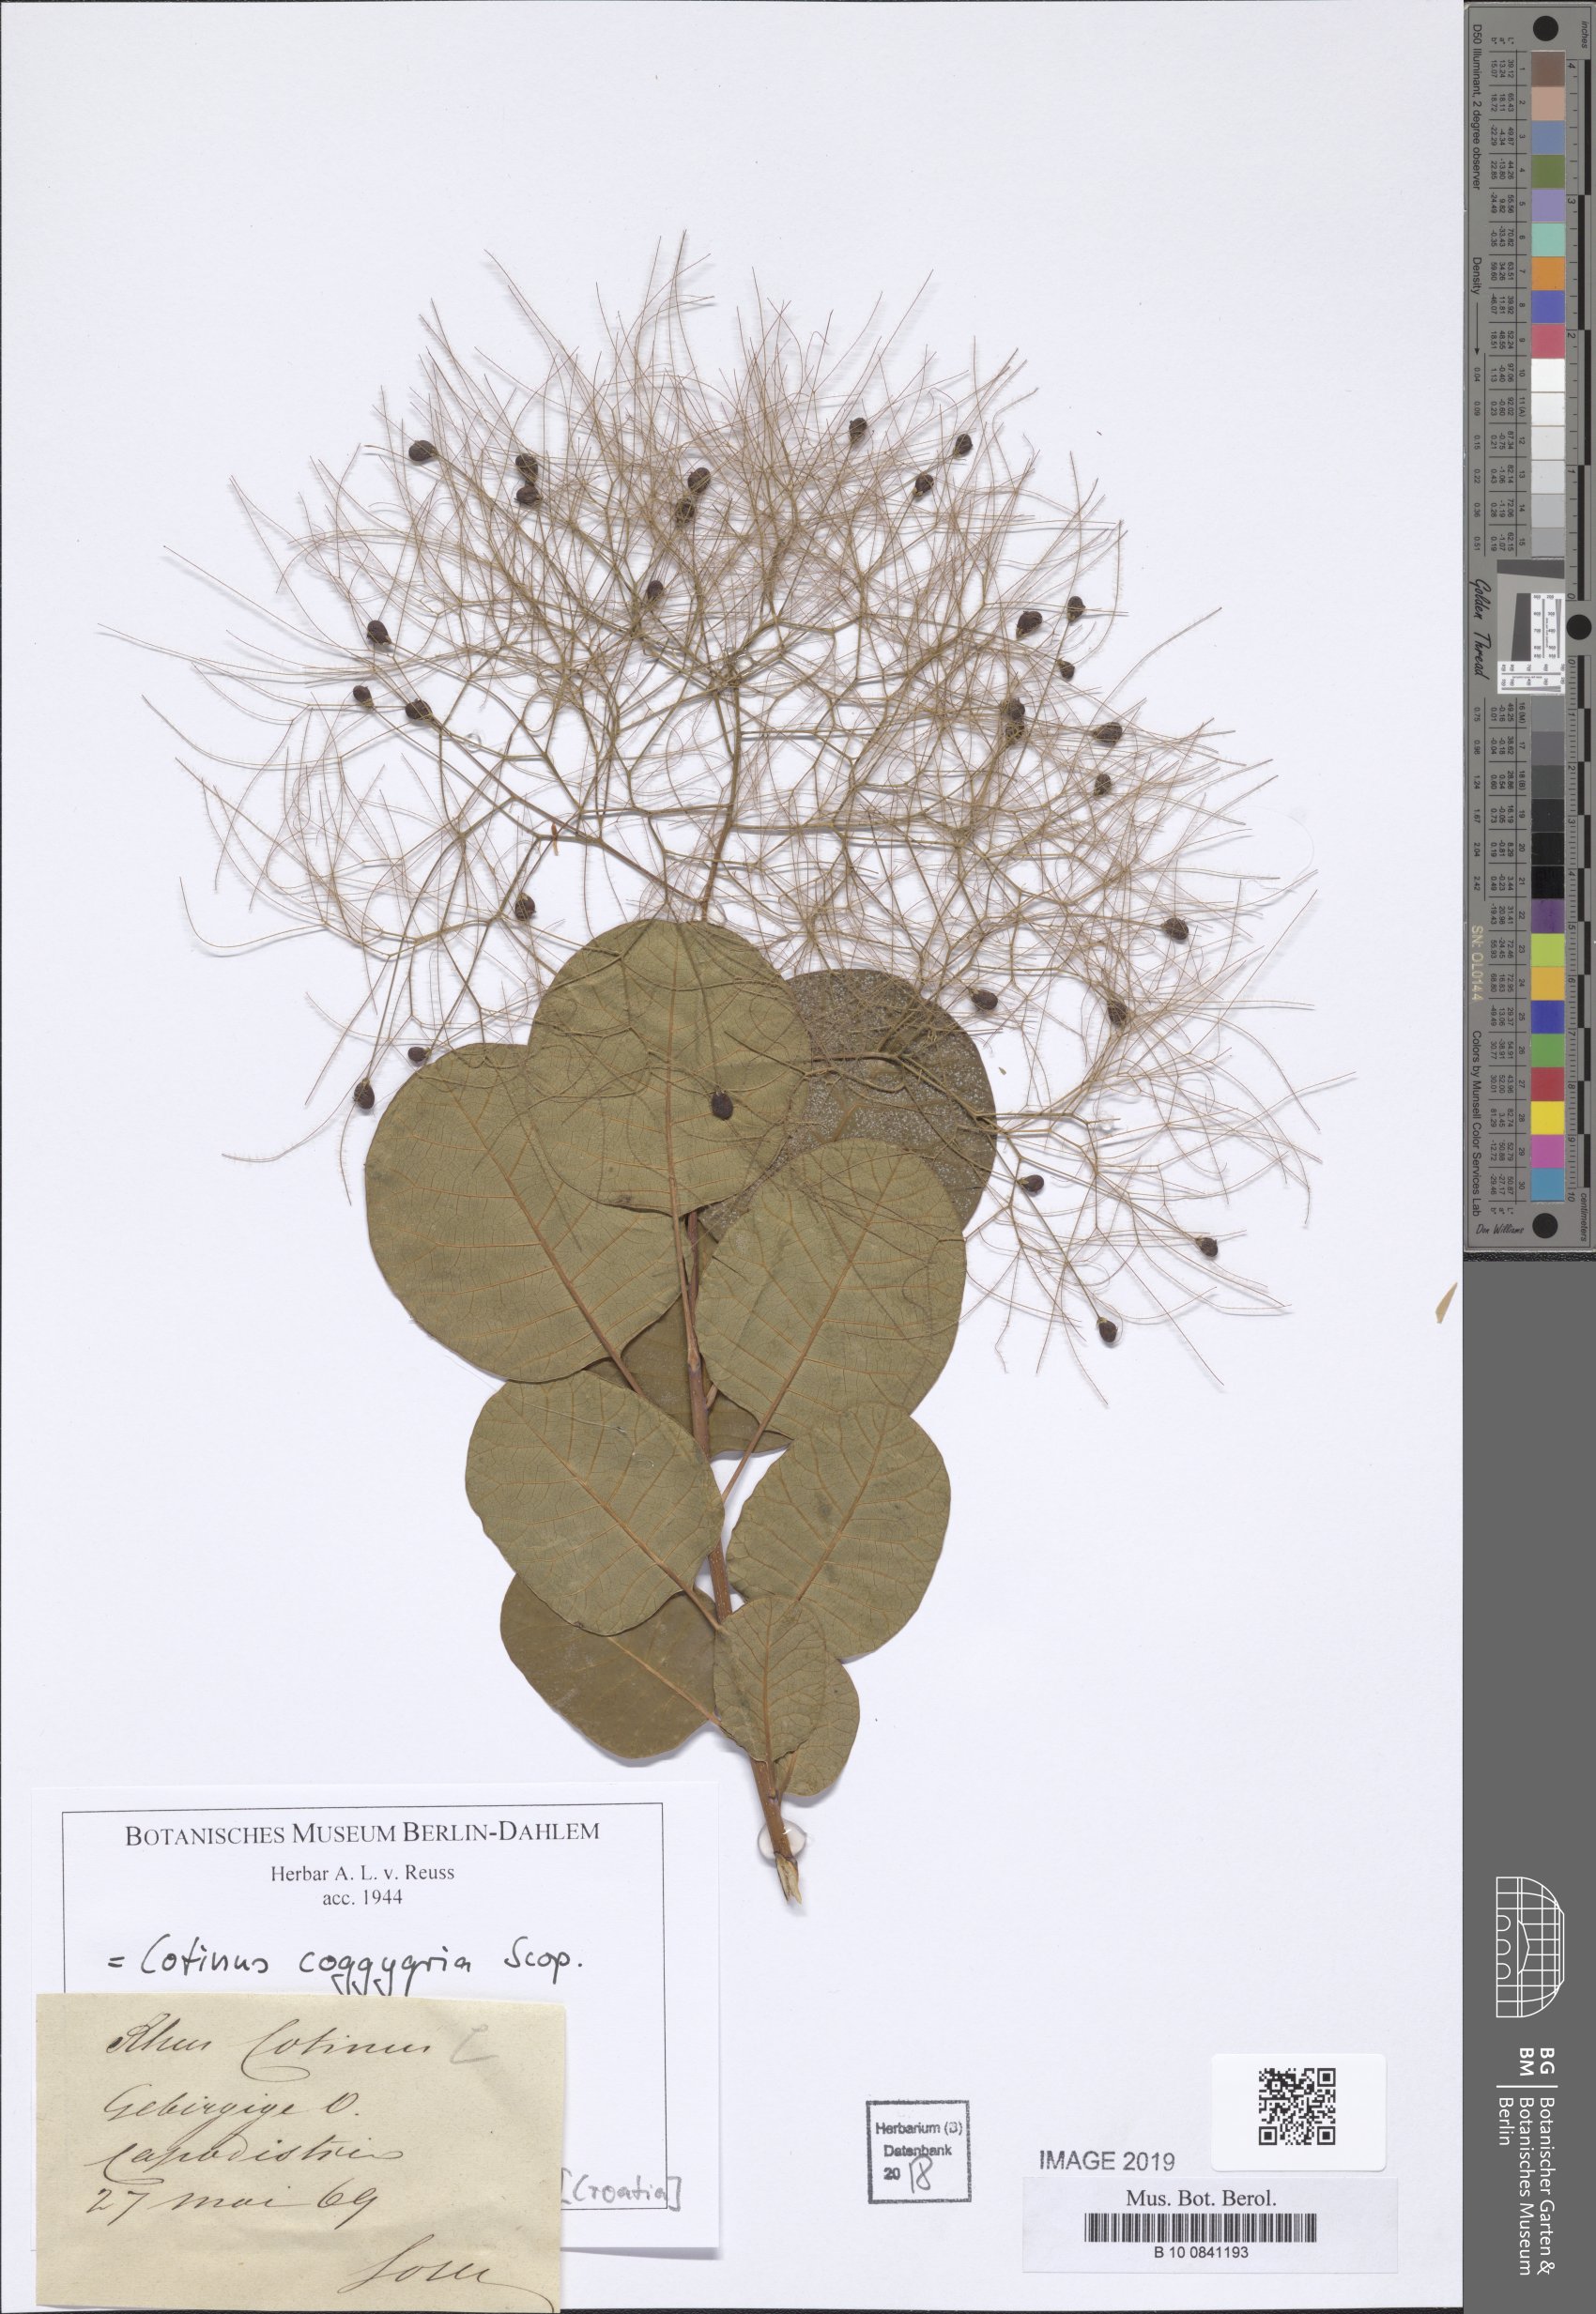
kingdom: Plantae
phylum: Tracheophyta
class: Magnoliopsida
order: Sapindales
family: Anacardiaceae
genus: Cotinus
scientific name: Cotinus coggygria
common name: Smoke-tree
